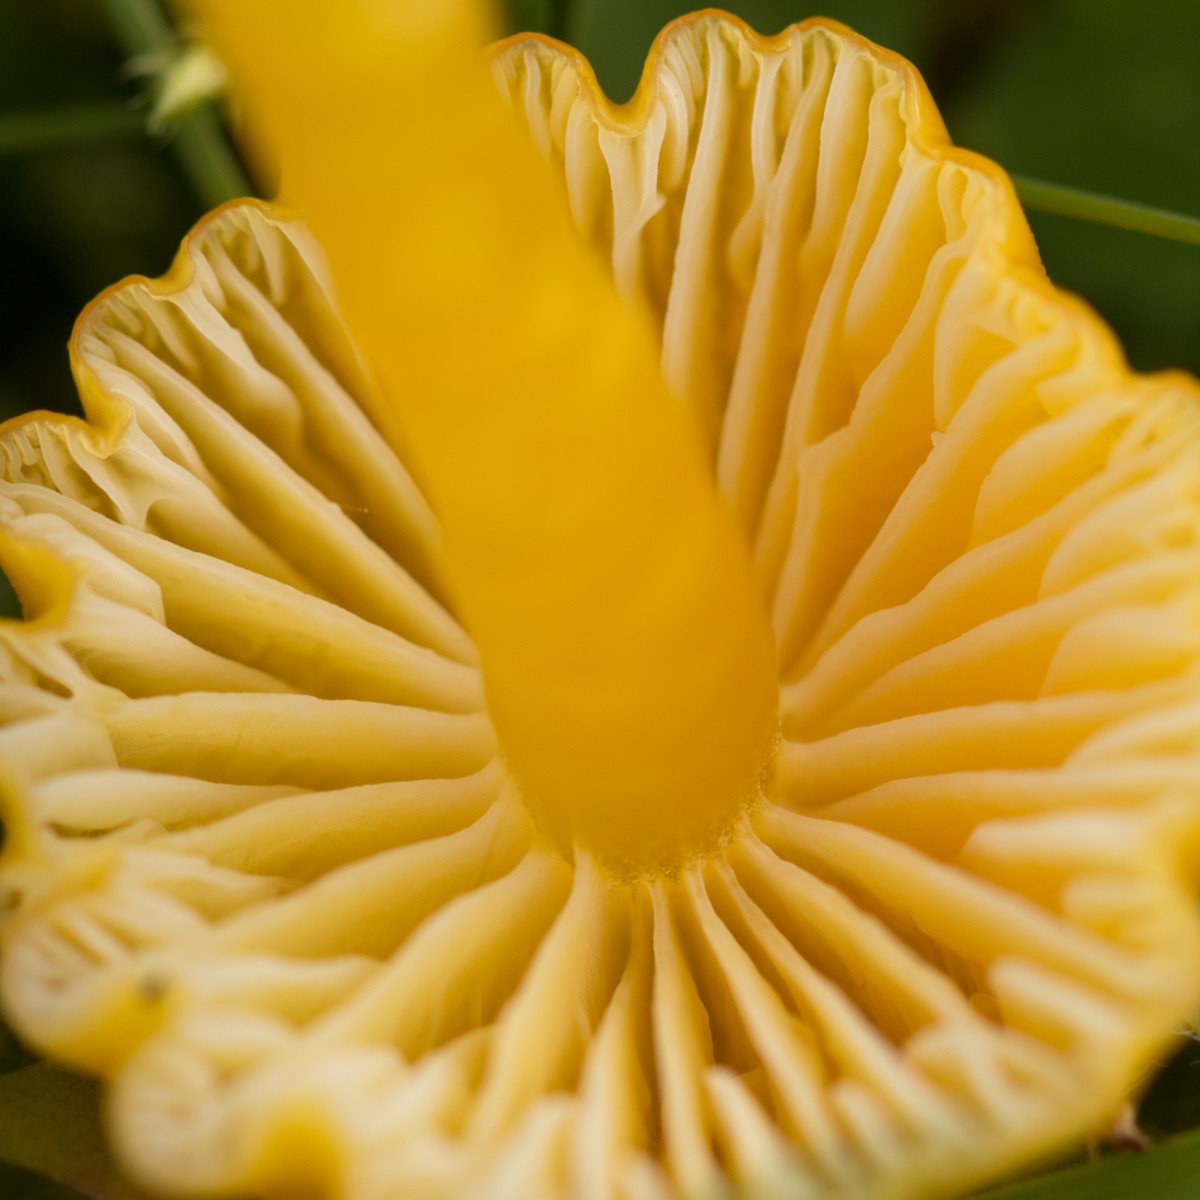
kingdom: Fungi
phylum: Basidiomycota
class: Agaricomycetes
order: Agaricales
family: Hygrophoraceae
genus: Hygrocybe
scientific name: Hygrocybe ceracea
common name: voksgul vokshat
